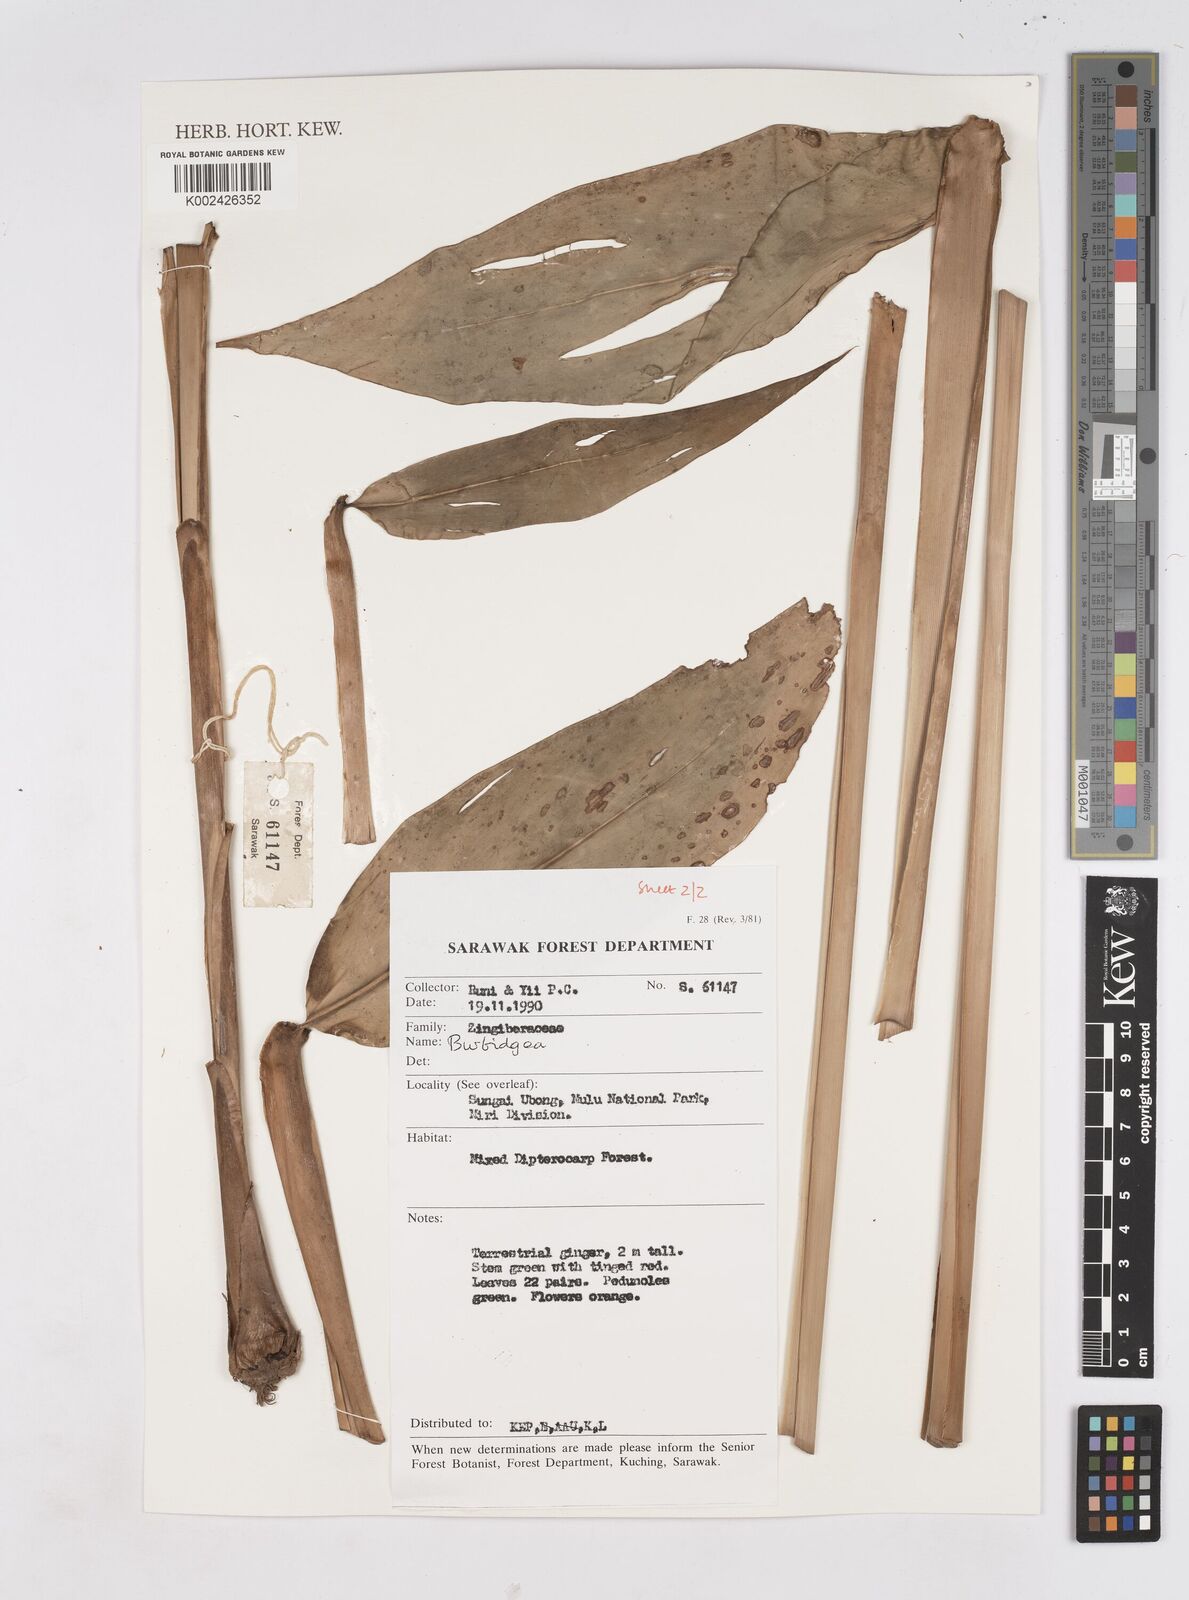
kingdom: Plantae
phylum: Tracheophyta
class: Liliopsida
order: Zingiberales
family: Zingiberaceae
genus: Burbidgea
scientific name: Burbidgea
